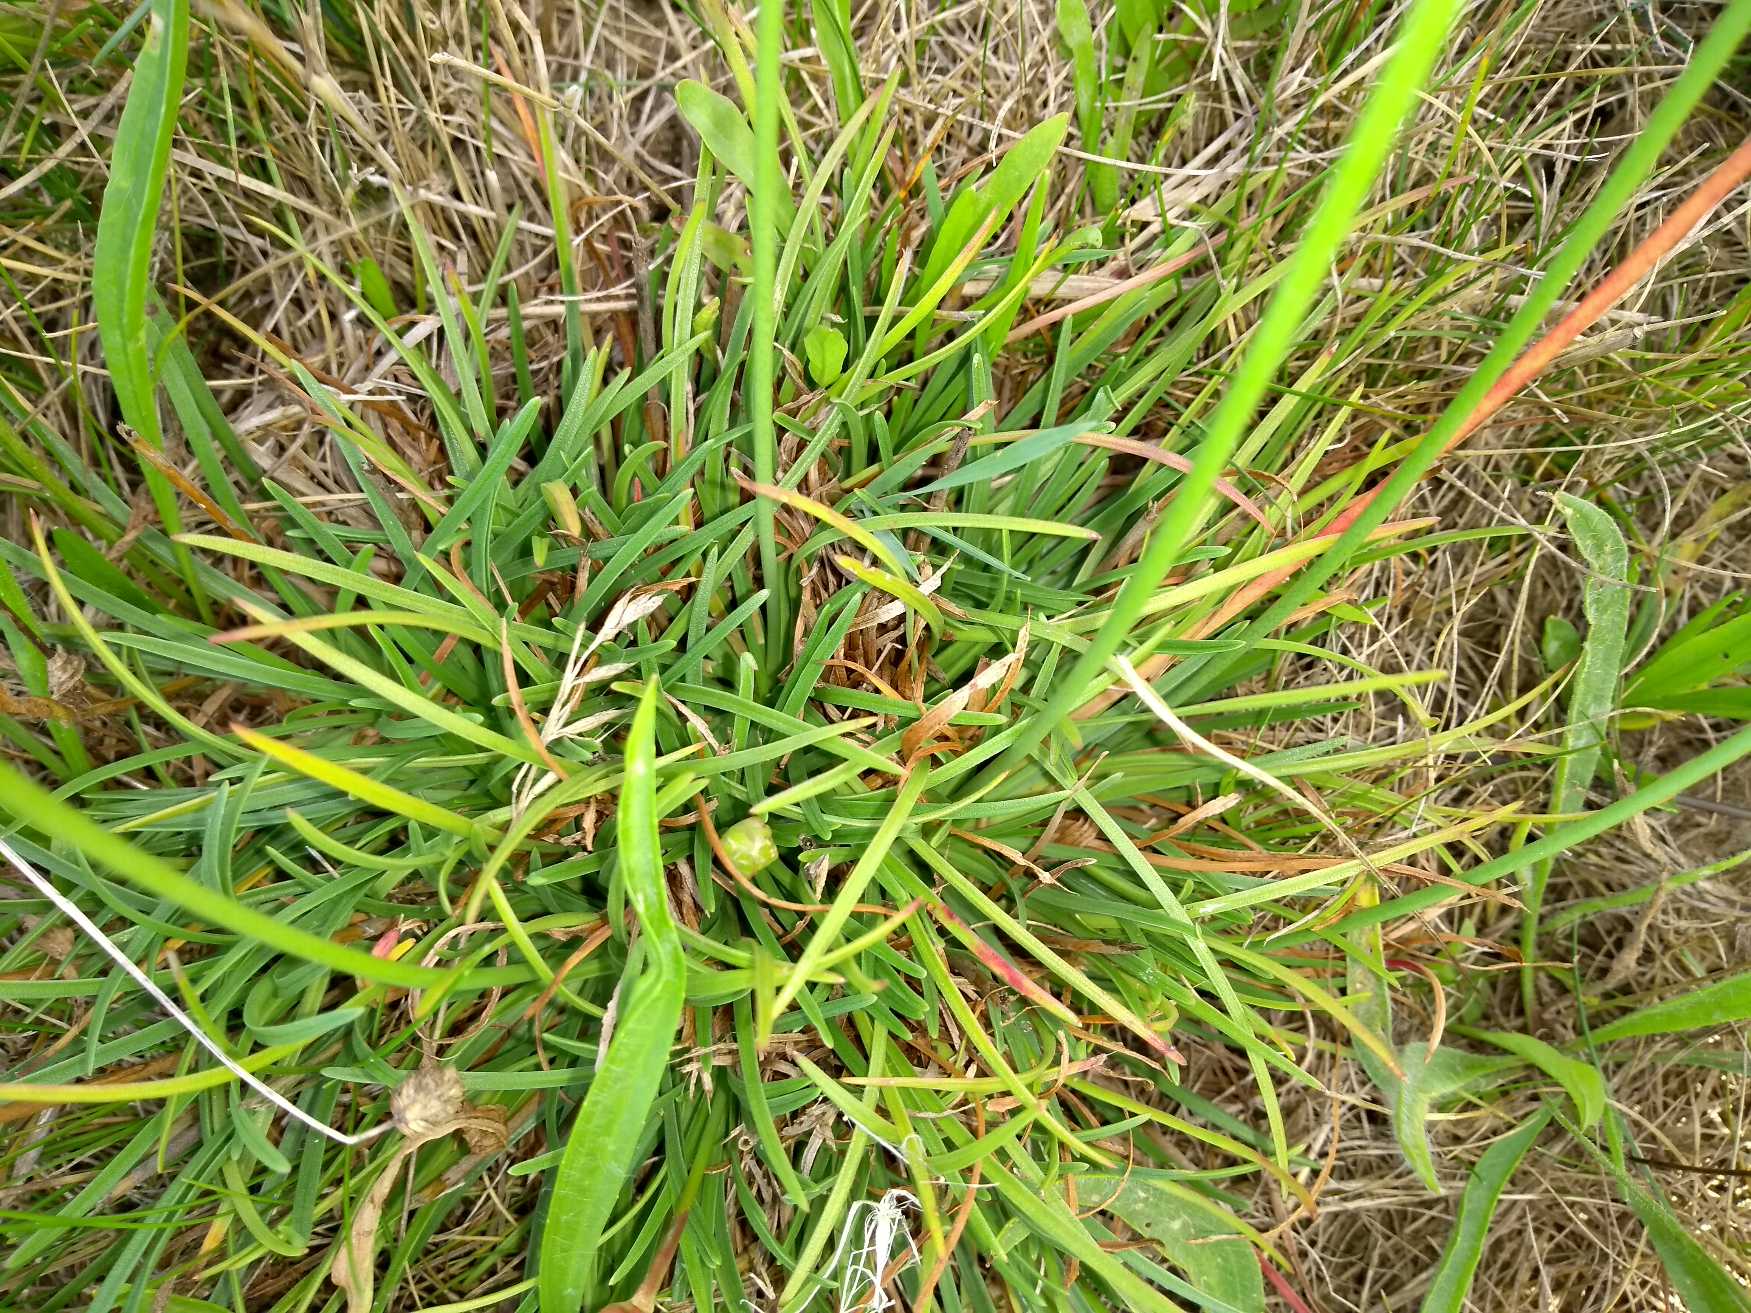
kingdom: Plantae
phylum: Tracheophyta
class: Magnoliopsida
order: Caryophyllales
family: Plumbaginaceae
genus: Armeria
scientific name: Armeria maritima
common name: Engelskgræs
